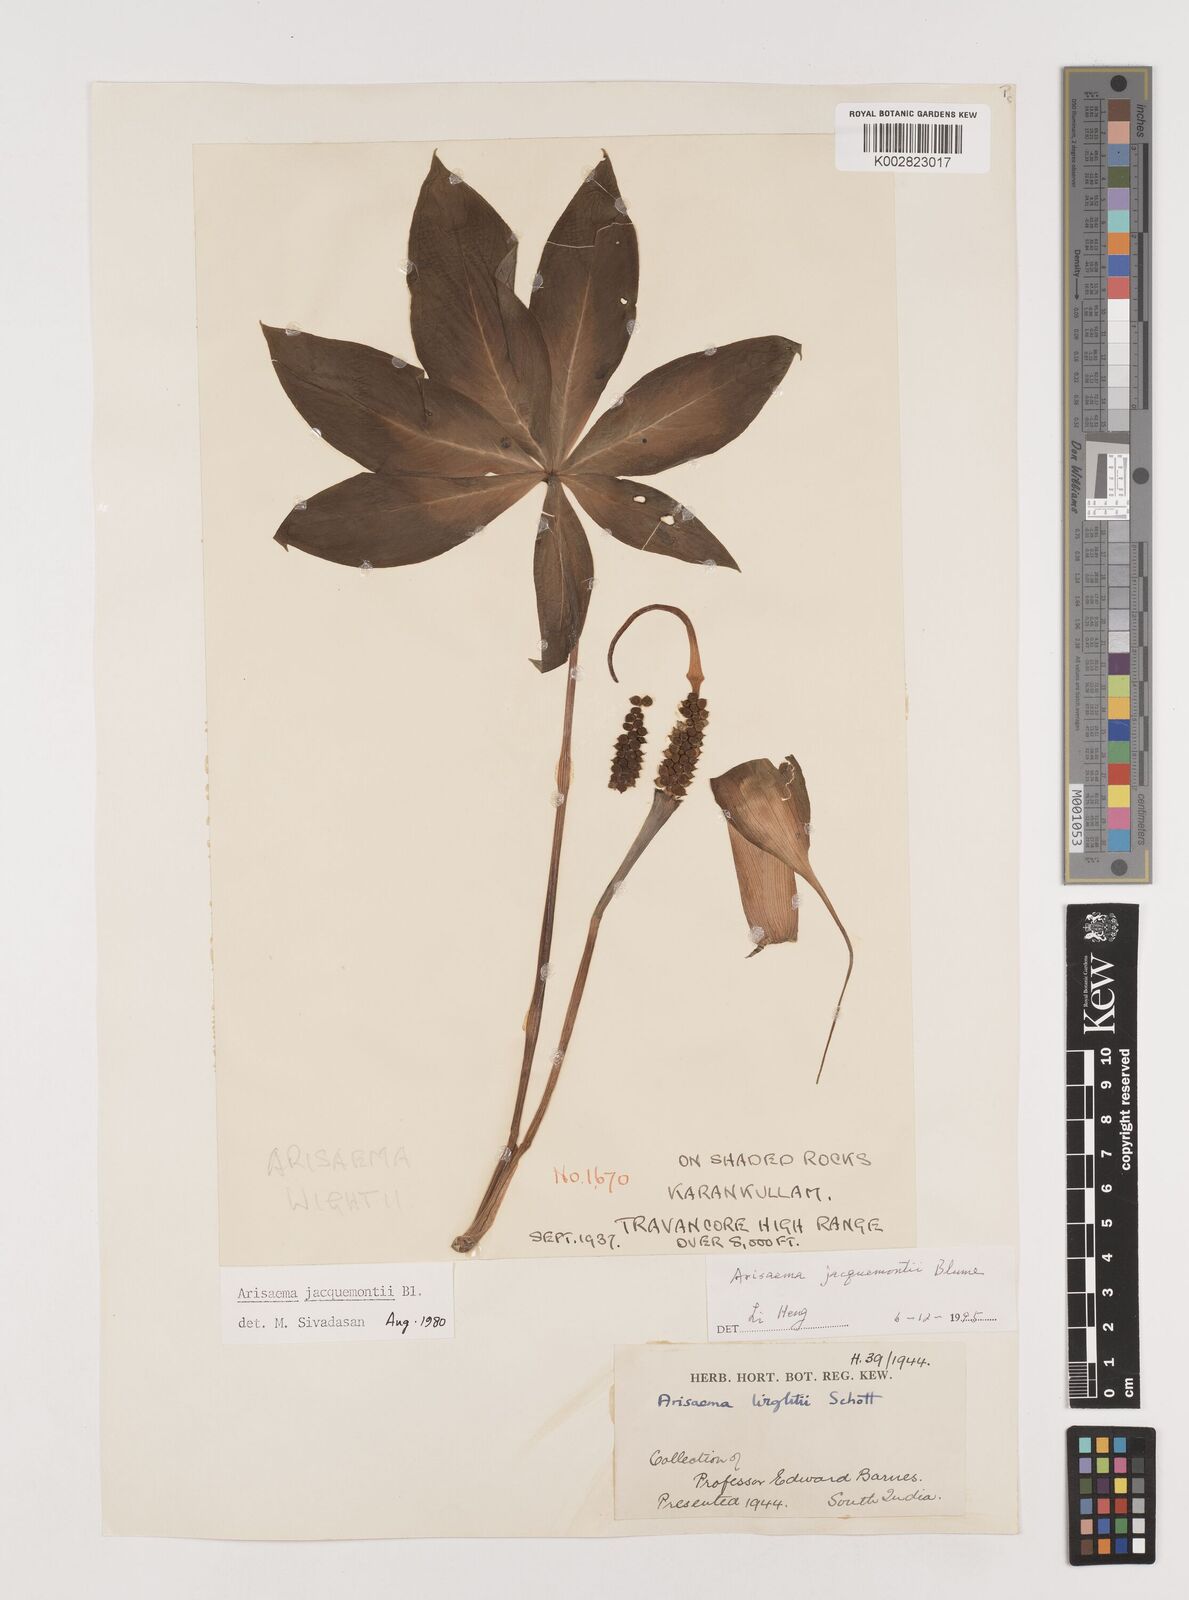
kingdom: Plantae
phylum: Tracheophyta
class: Liliopsida
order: Alismatales
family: Araceae
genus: Arisaema
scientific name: Arisaema jacquemontii
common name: Jacquemont's cobra-lily
